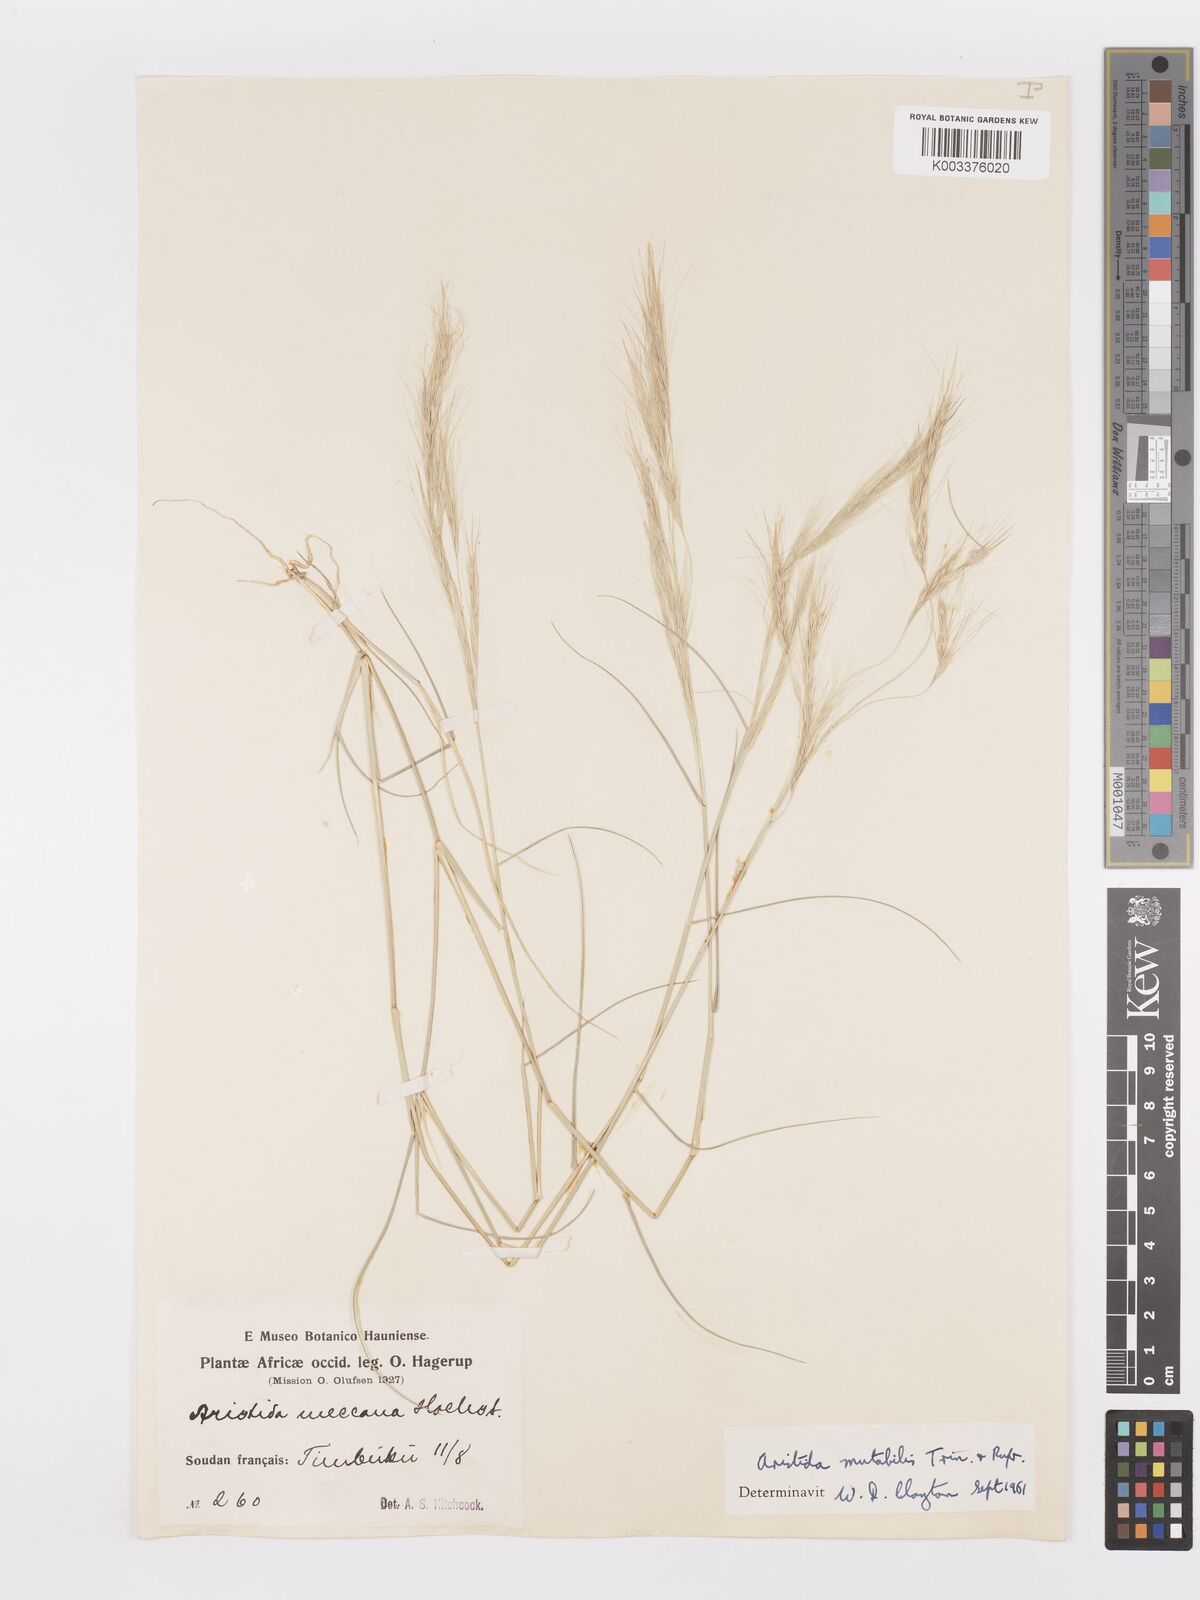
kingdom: Plantae
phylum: Tracheophyta
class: Liliopsida
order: Poales
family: Poaceae
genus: Aristida
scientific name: Aristida mutabilis
